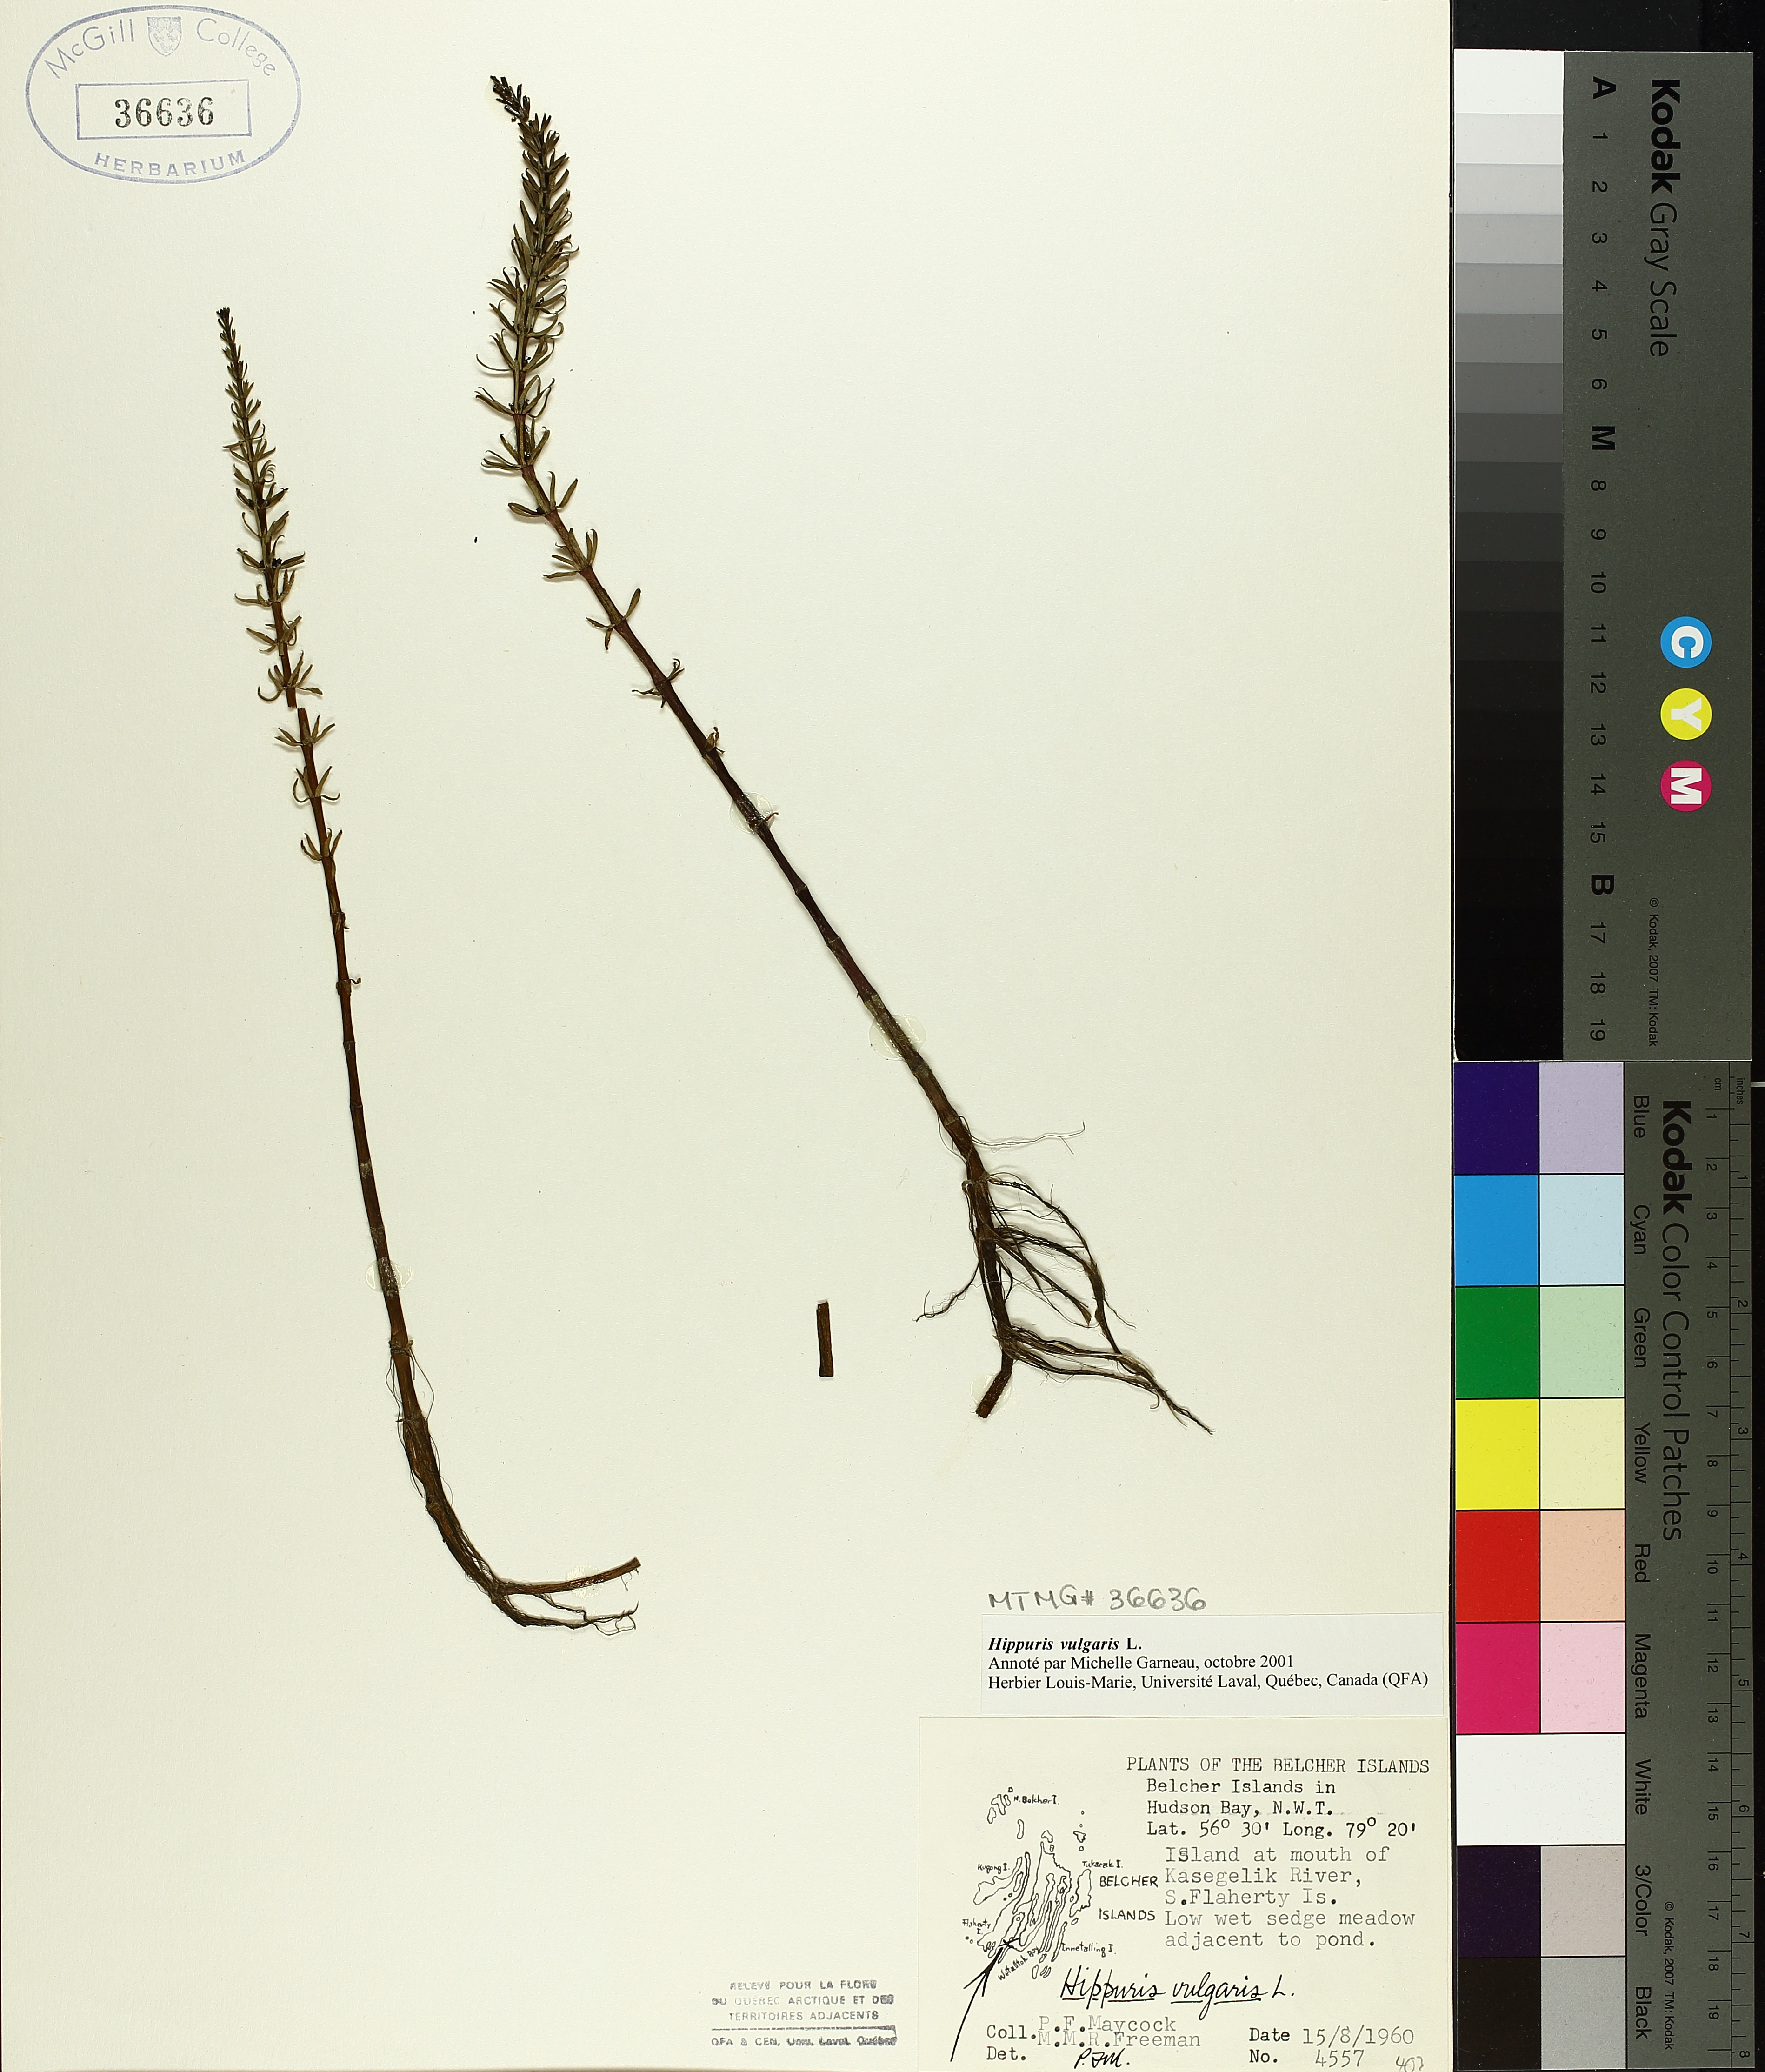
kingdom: Plantae
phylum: Tracheophyta
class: Magnoliopsida
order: Lamiales
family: Plantaginaceae
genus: Hippuris
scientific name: Hippuris vulgaris
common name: Mare's-tail
